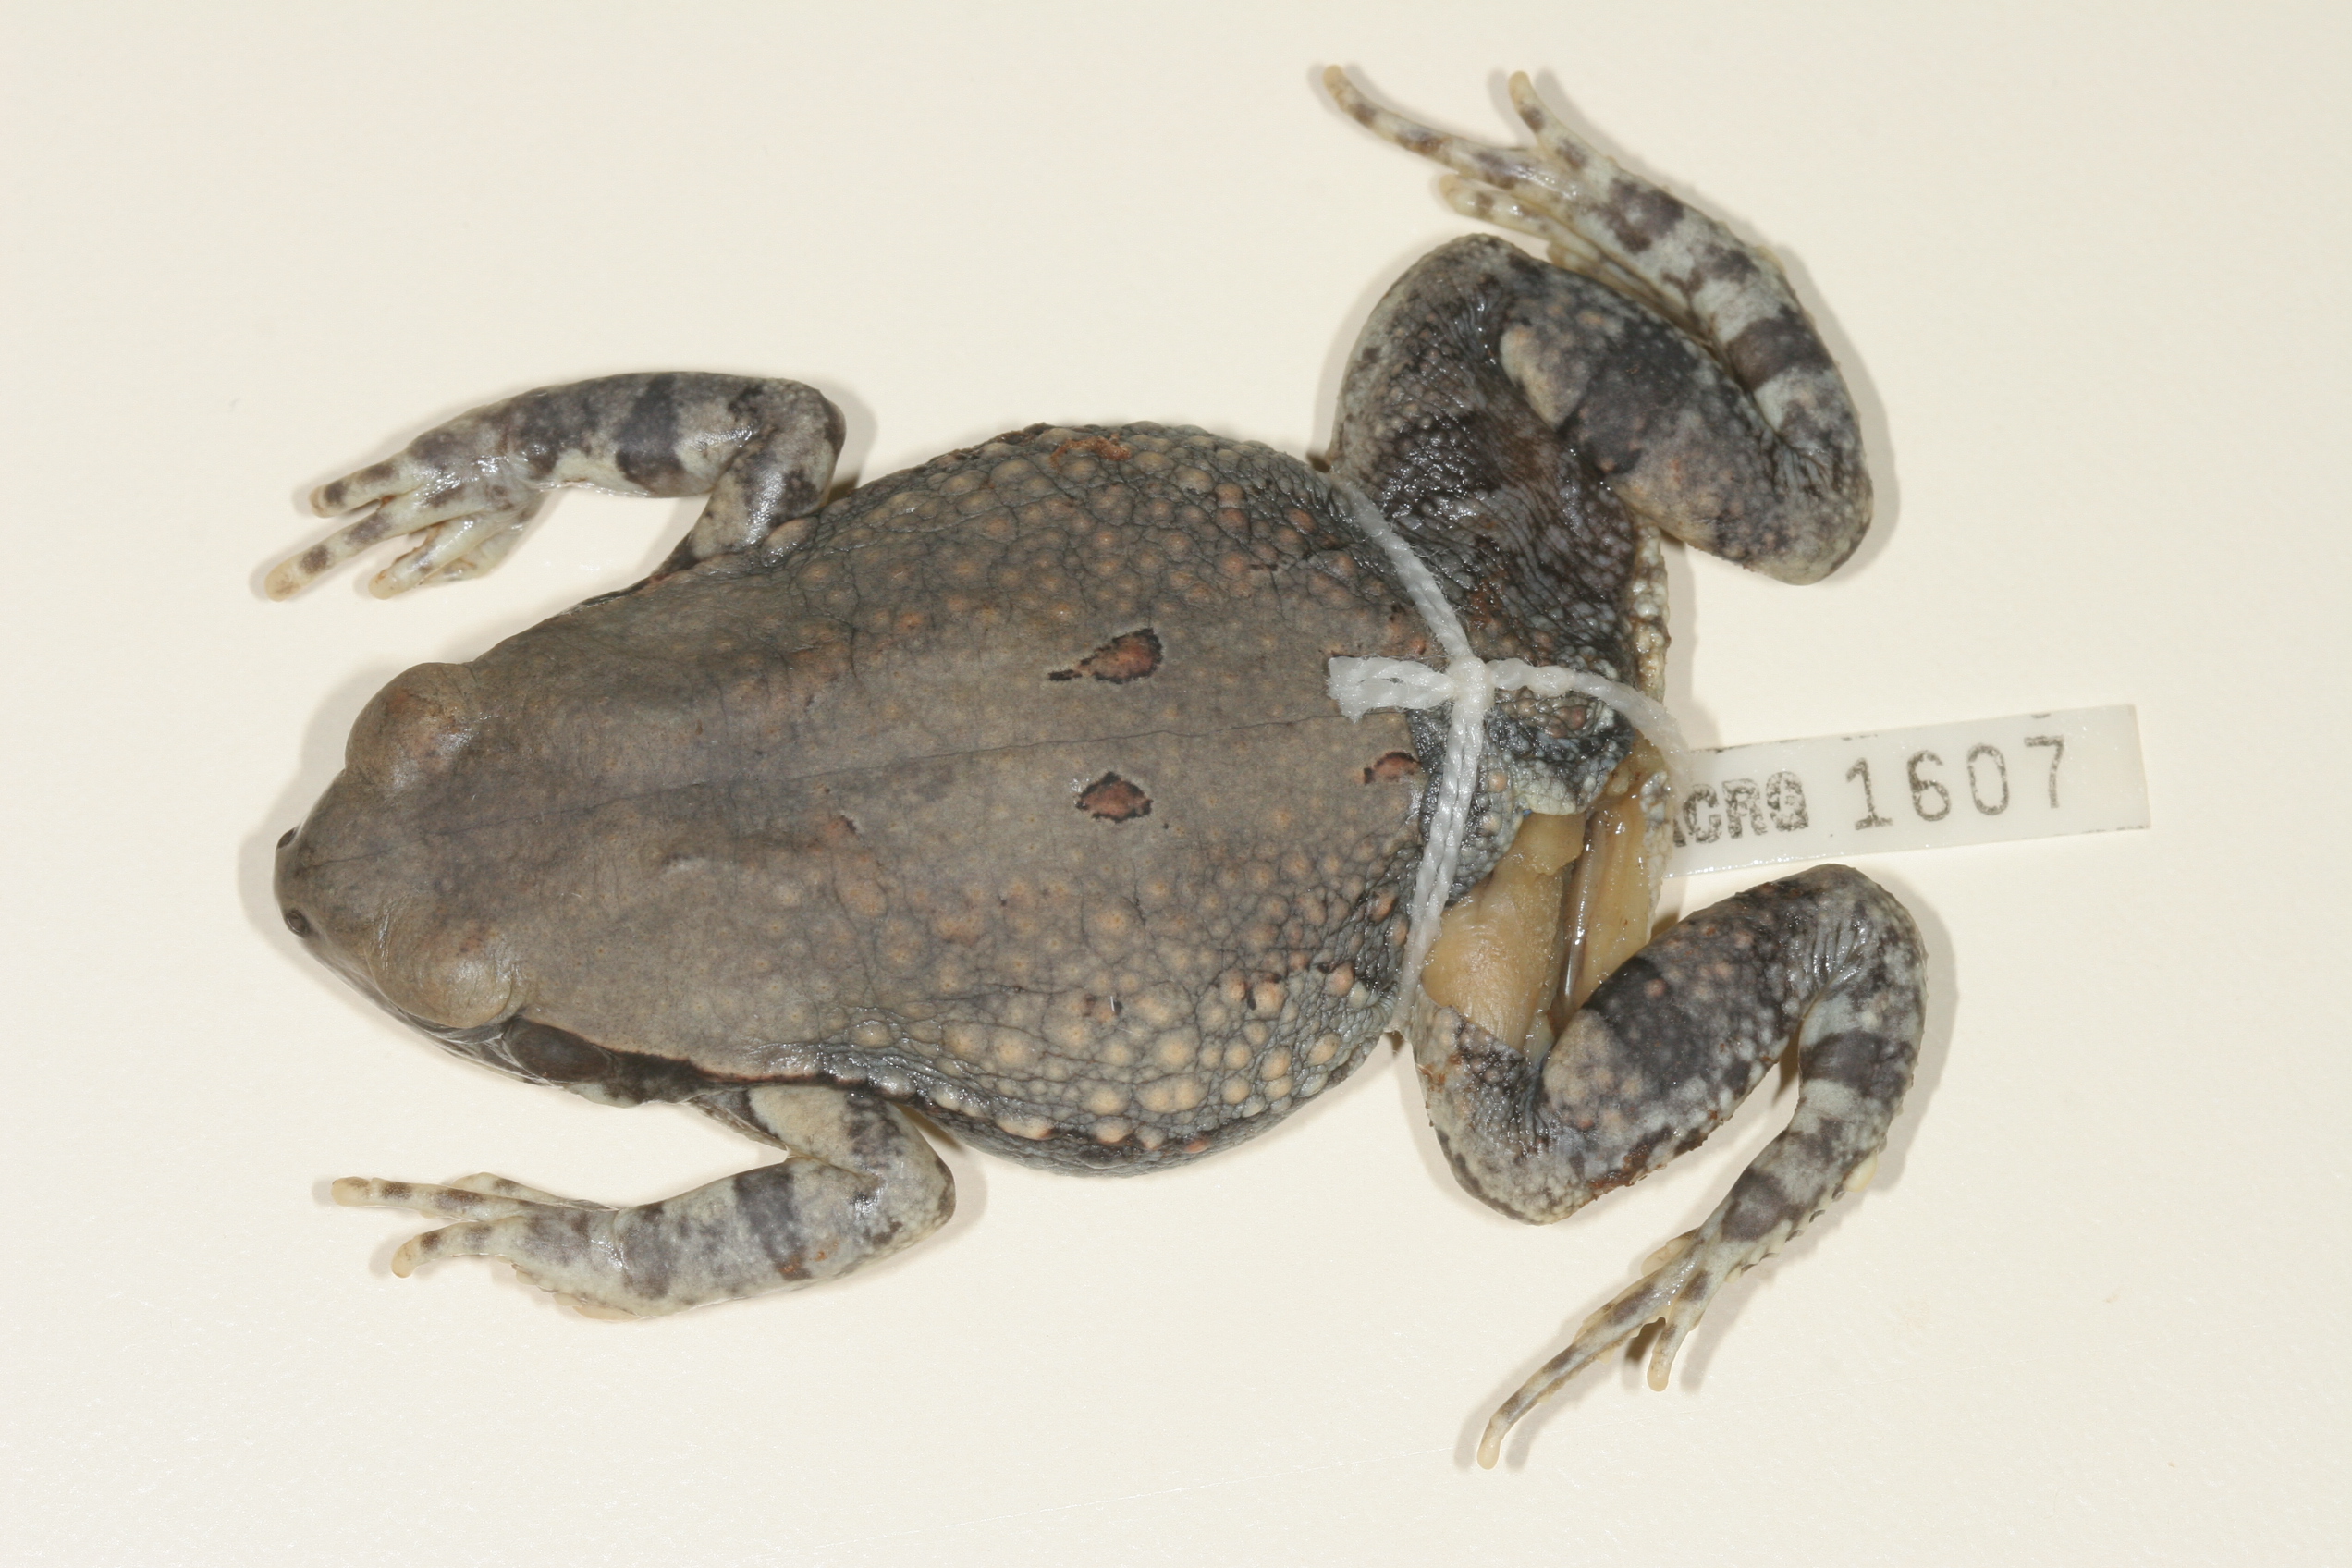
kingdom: Animalia
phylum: Chordata
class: Amphibia
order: Anura
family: Bufonidae
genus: Schismaderma
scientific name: Schismaderma carens
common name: African split-skin toad
